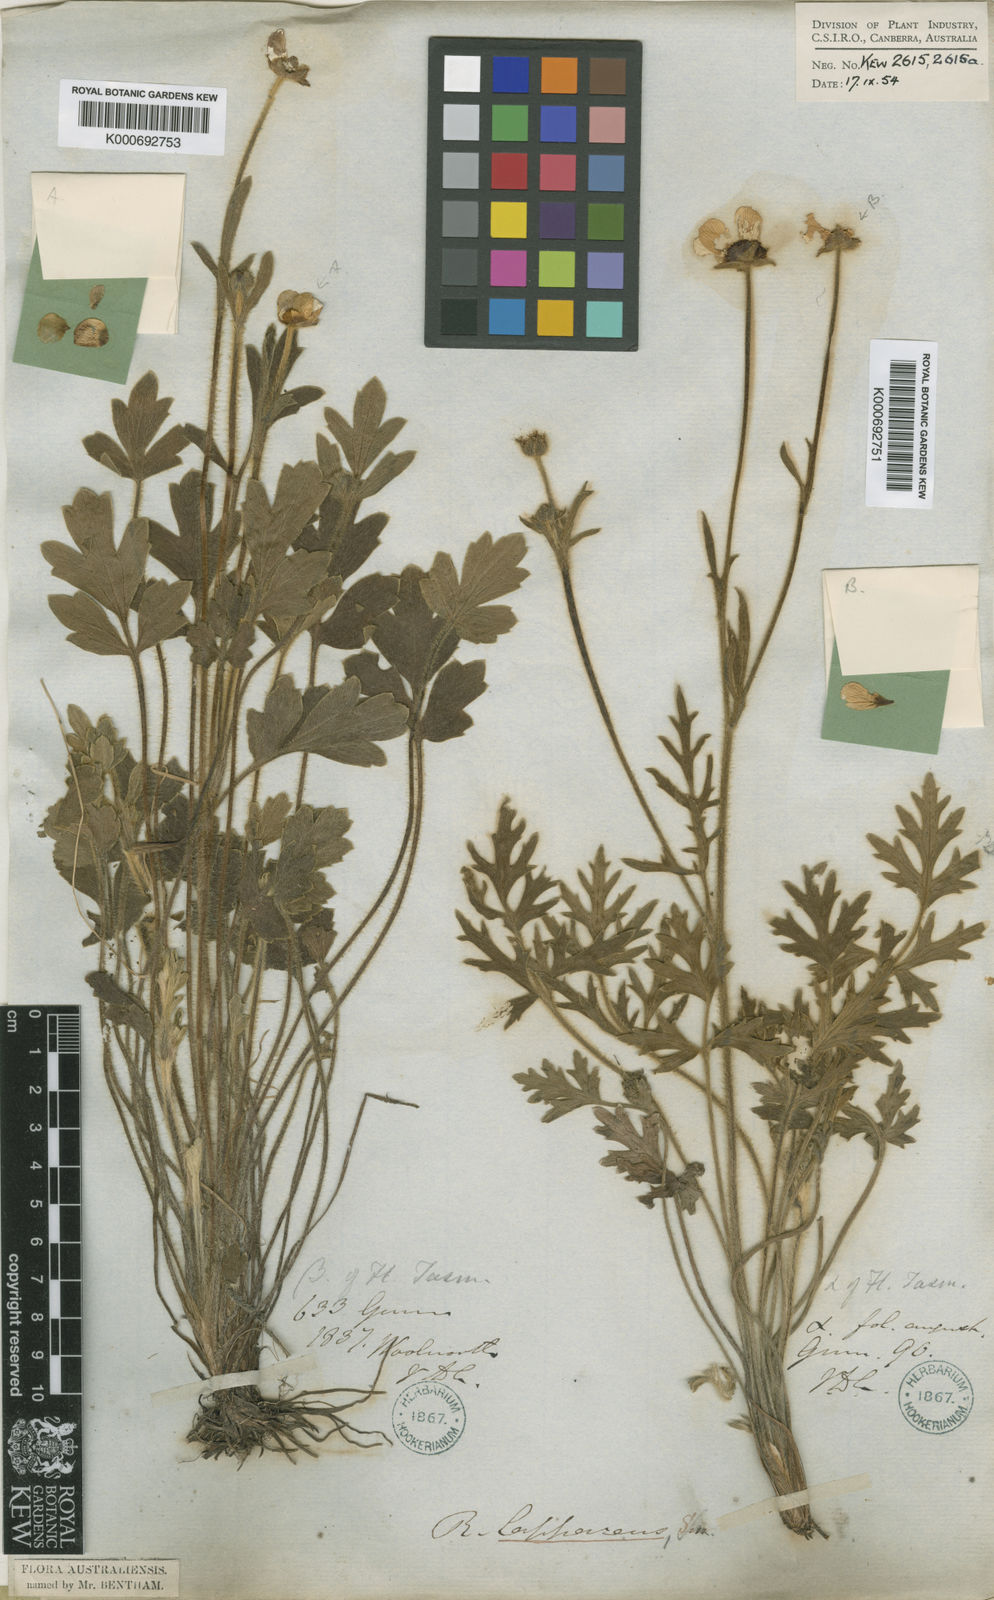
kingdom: Plantae
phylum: Tracheophyta
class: Magnoliopsida
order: Ranunculales
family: Ranunculaceae
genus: Ranunculus
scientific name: Ranunculus lappaceus
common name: Australian buttercup
